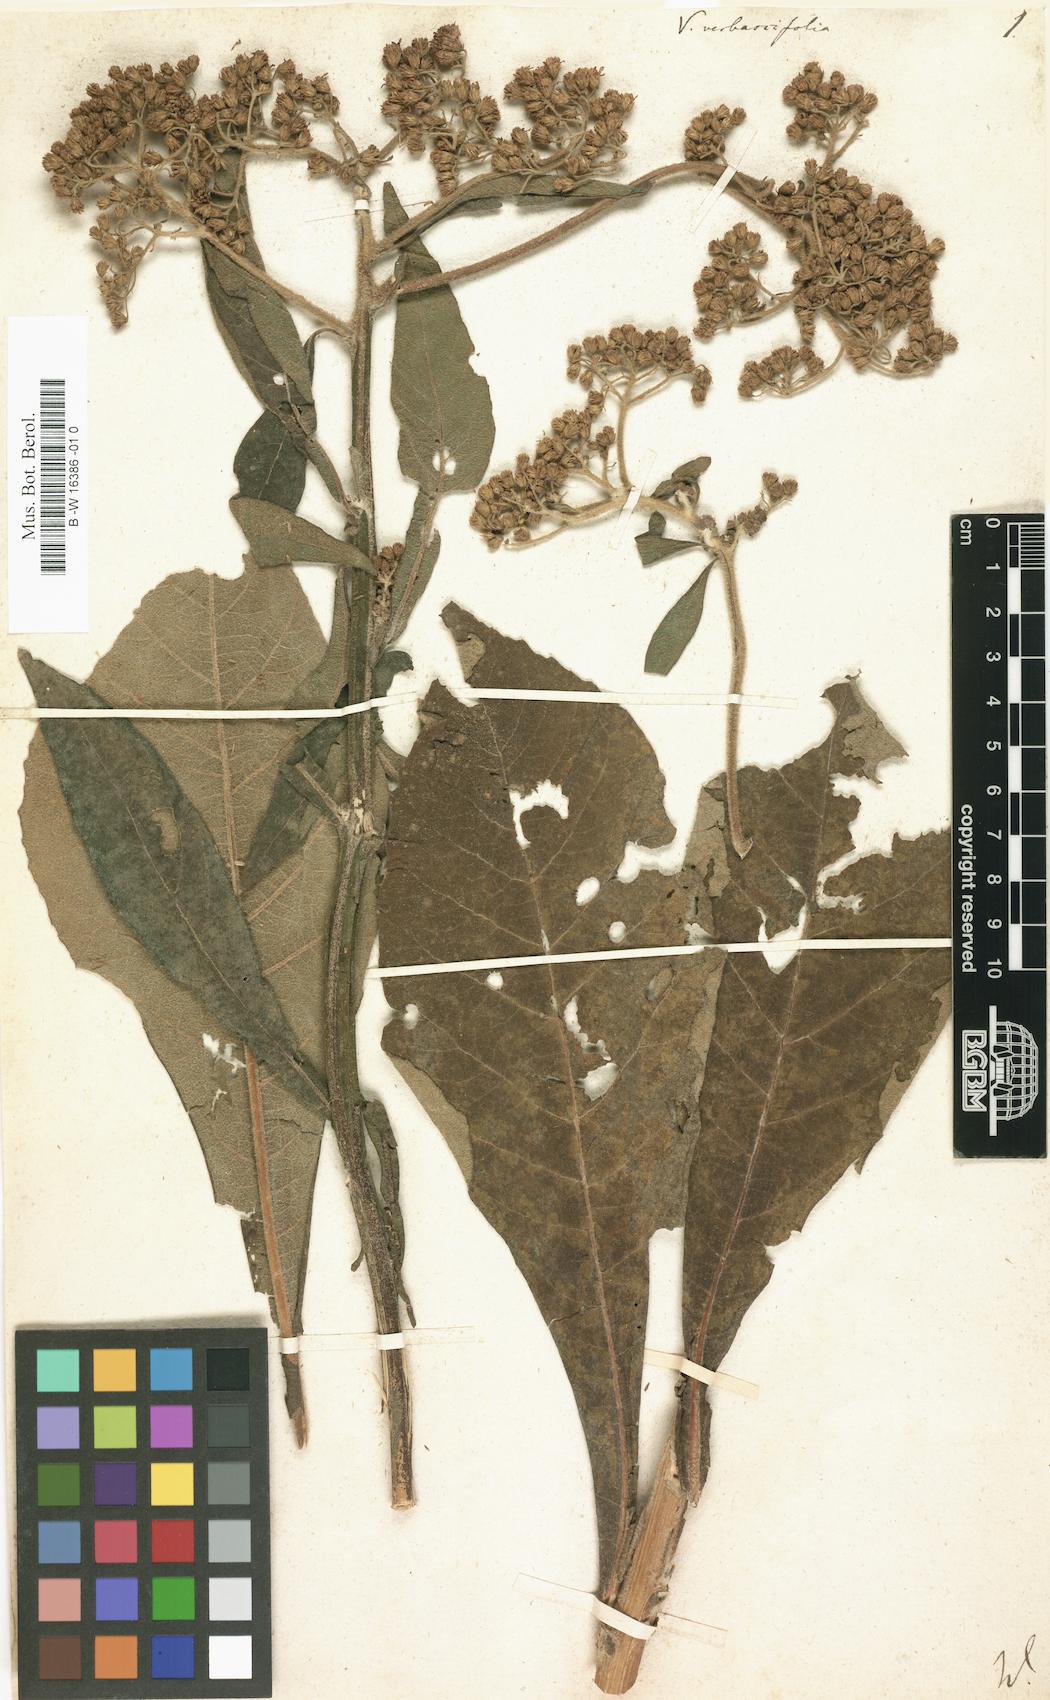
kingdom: Plantae
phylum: Tracheophyta
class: Magnoliopsida
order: Asterales
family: Asteraceae
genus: Verbesina
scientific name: Verbesina turbacensis
